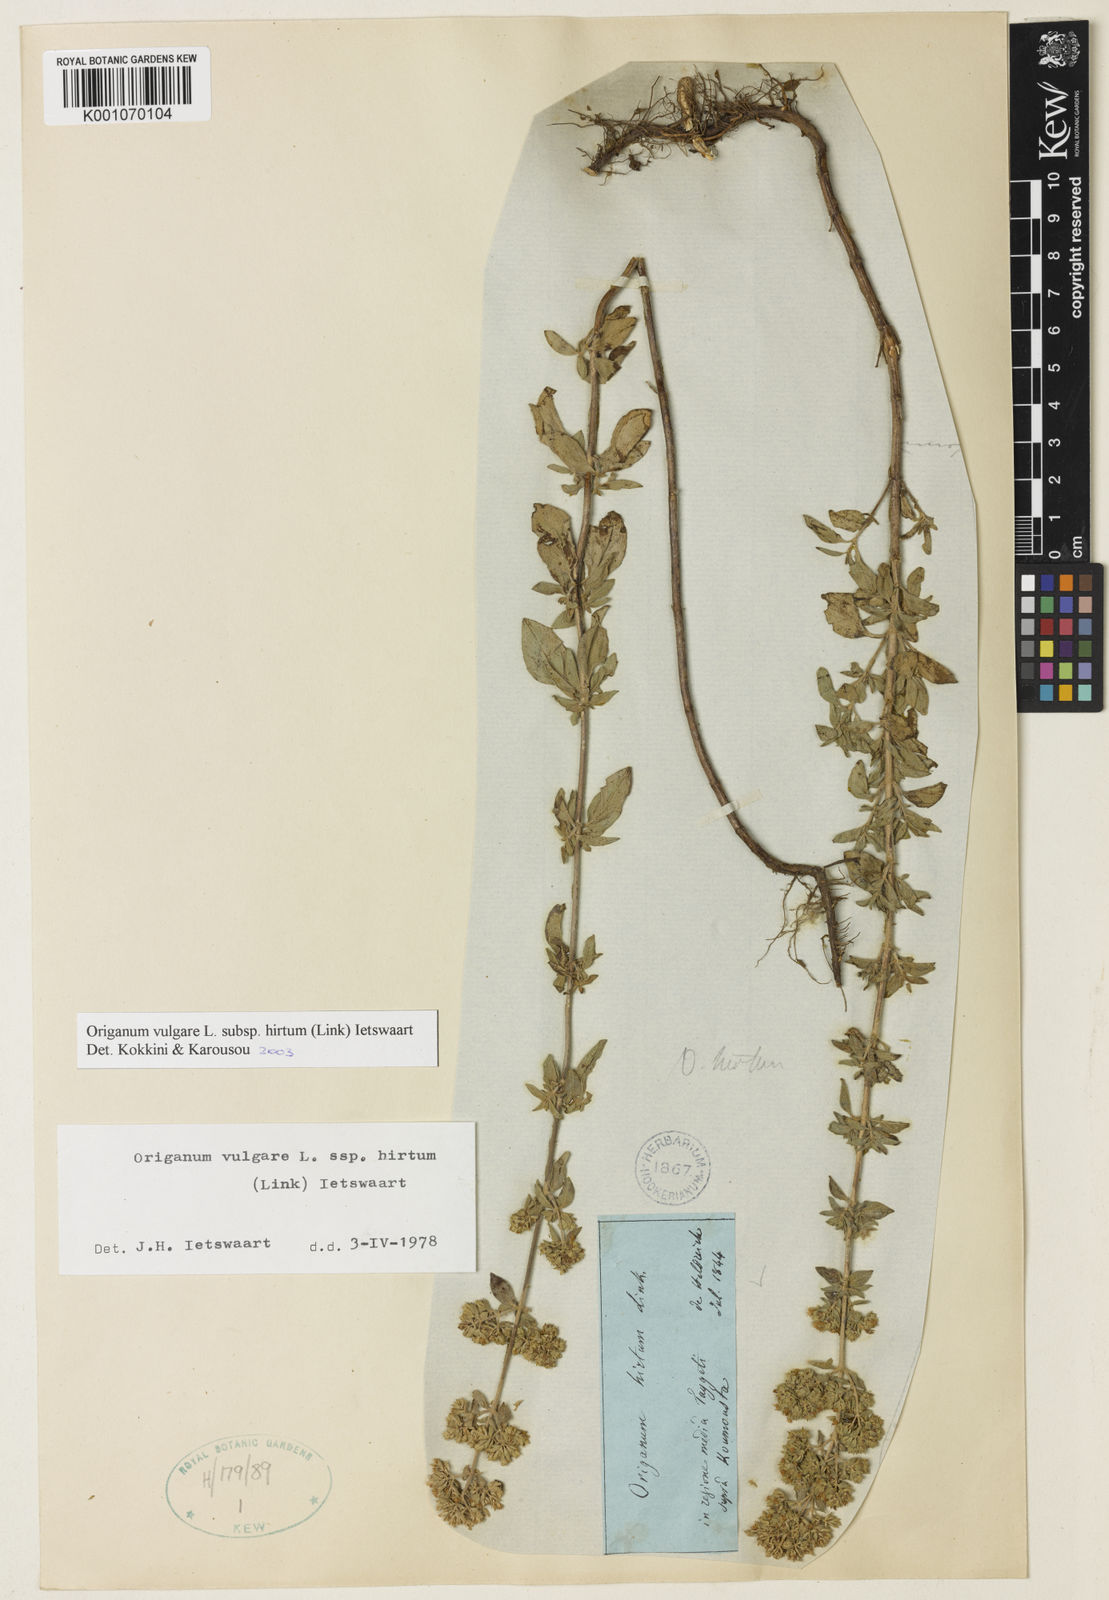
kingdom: Plantae
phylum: Tracheophyta
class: Magnoliopsida
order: Lamiales
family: Lamiaceae
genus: Origanum
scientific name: Origanum vulgare
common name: Wild marjoram
